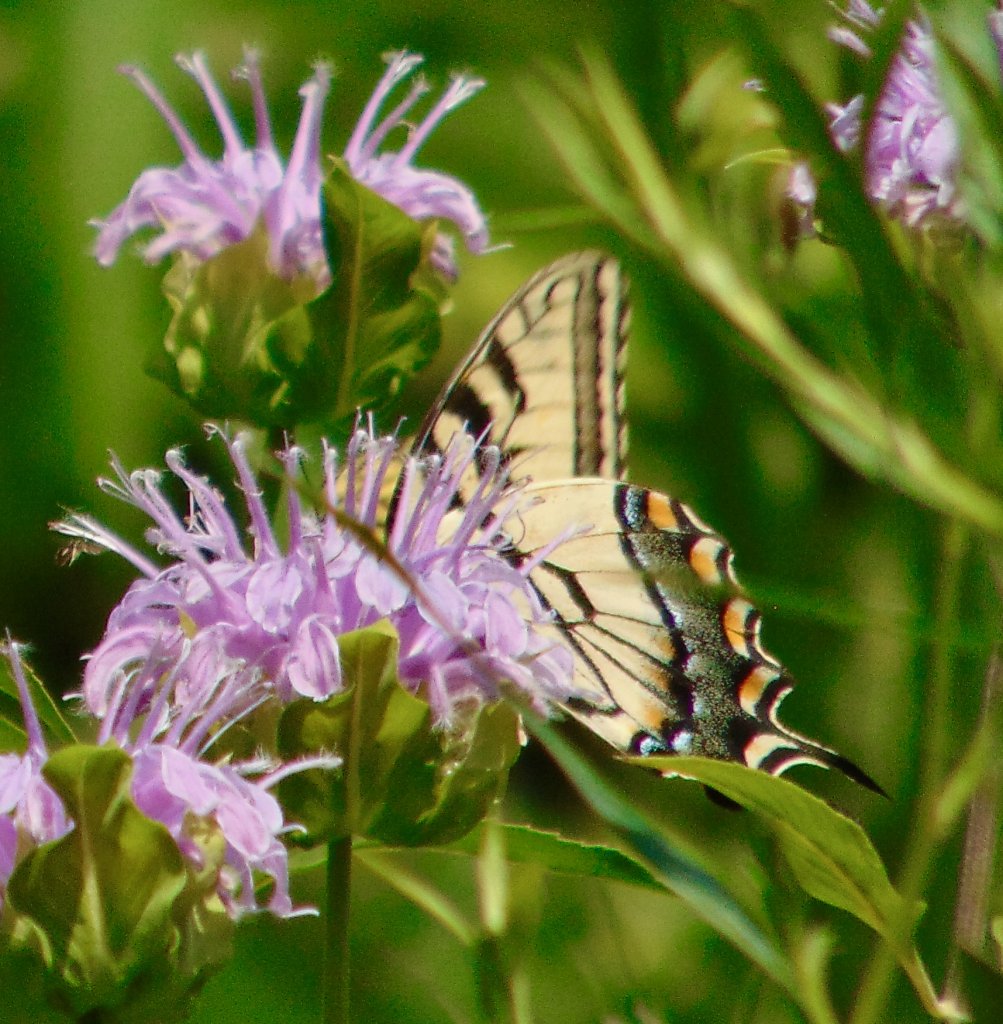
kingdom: Animalia
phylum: Arthropoda
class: Insecta
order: Lepidoptera
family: Papilionidae
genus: Pterourus
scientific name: Pterourus glaucus
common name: Eastern Tiger Swallowtail
